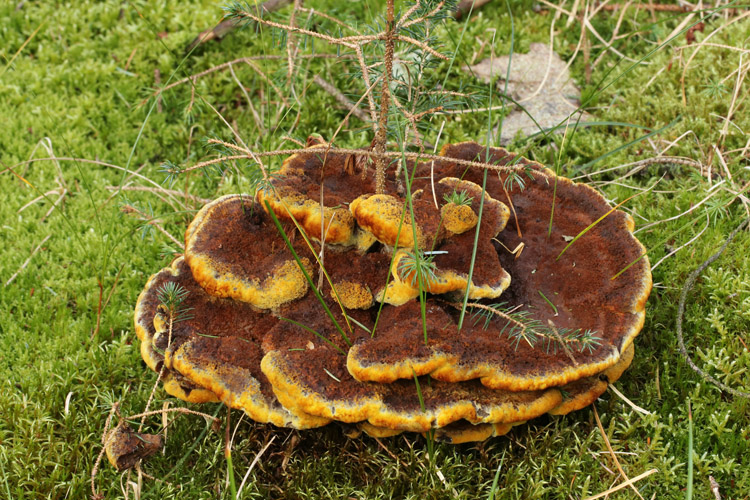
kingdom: Fungi
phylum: Basidiomycota
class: Agaricomycetes
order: Polyporales
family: Laetiporaceae
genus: Phaeolus
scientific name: Phaeolus schweinitzii
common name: brunporesvamp
